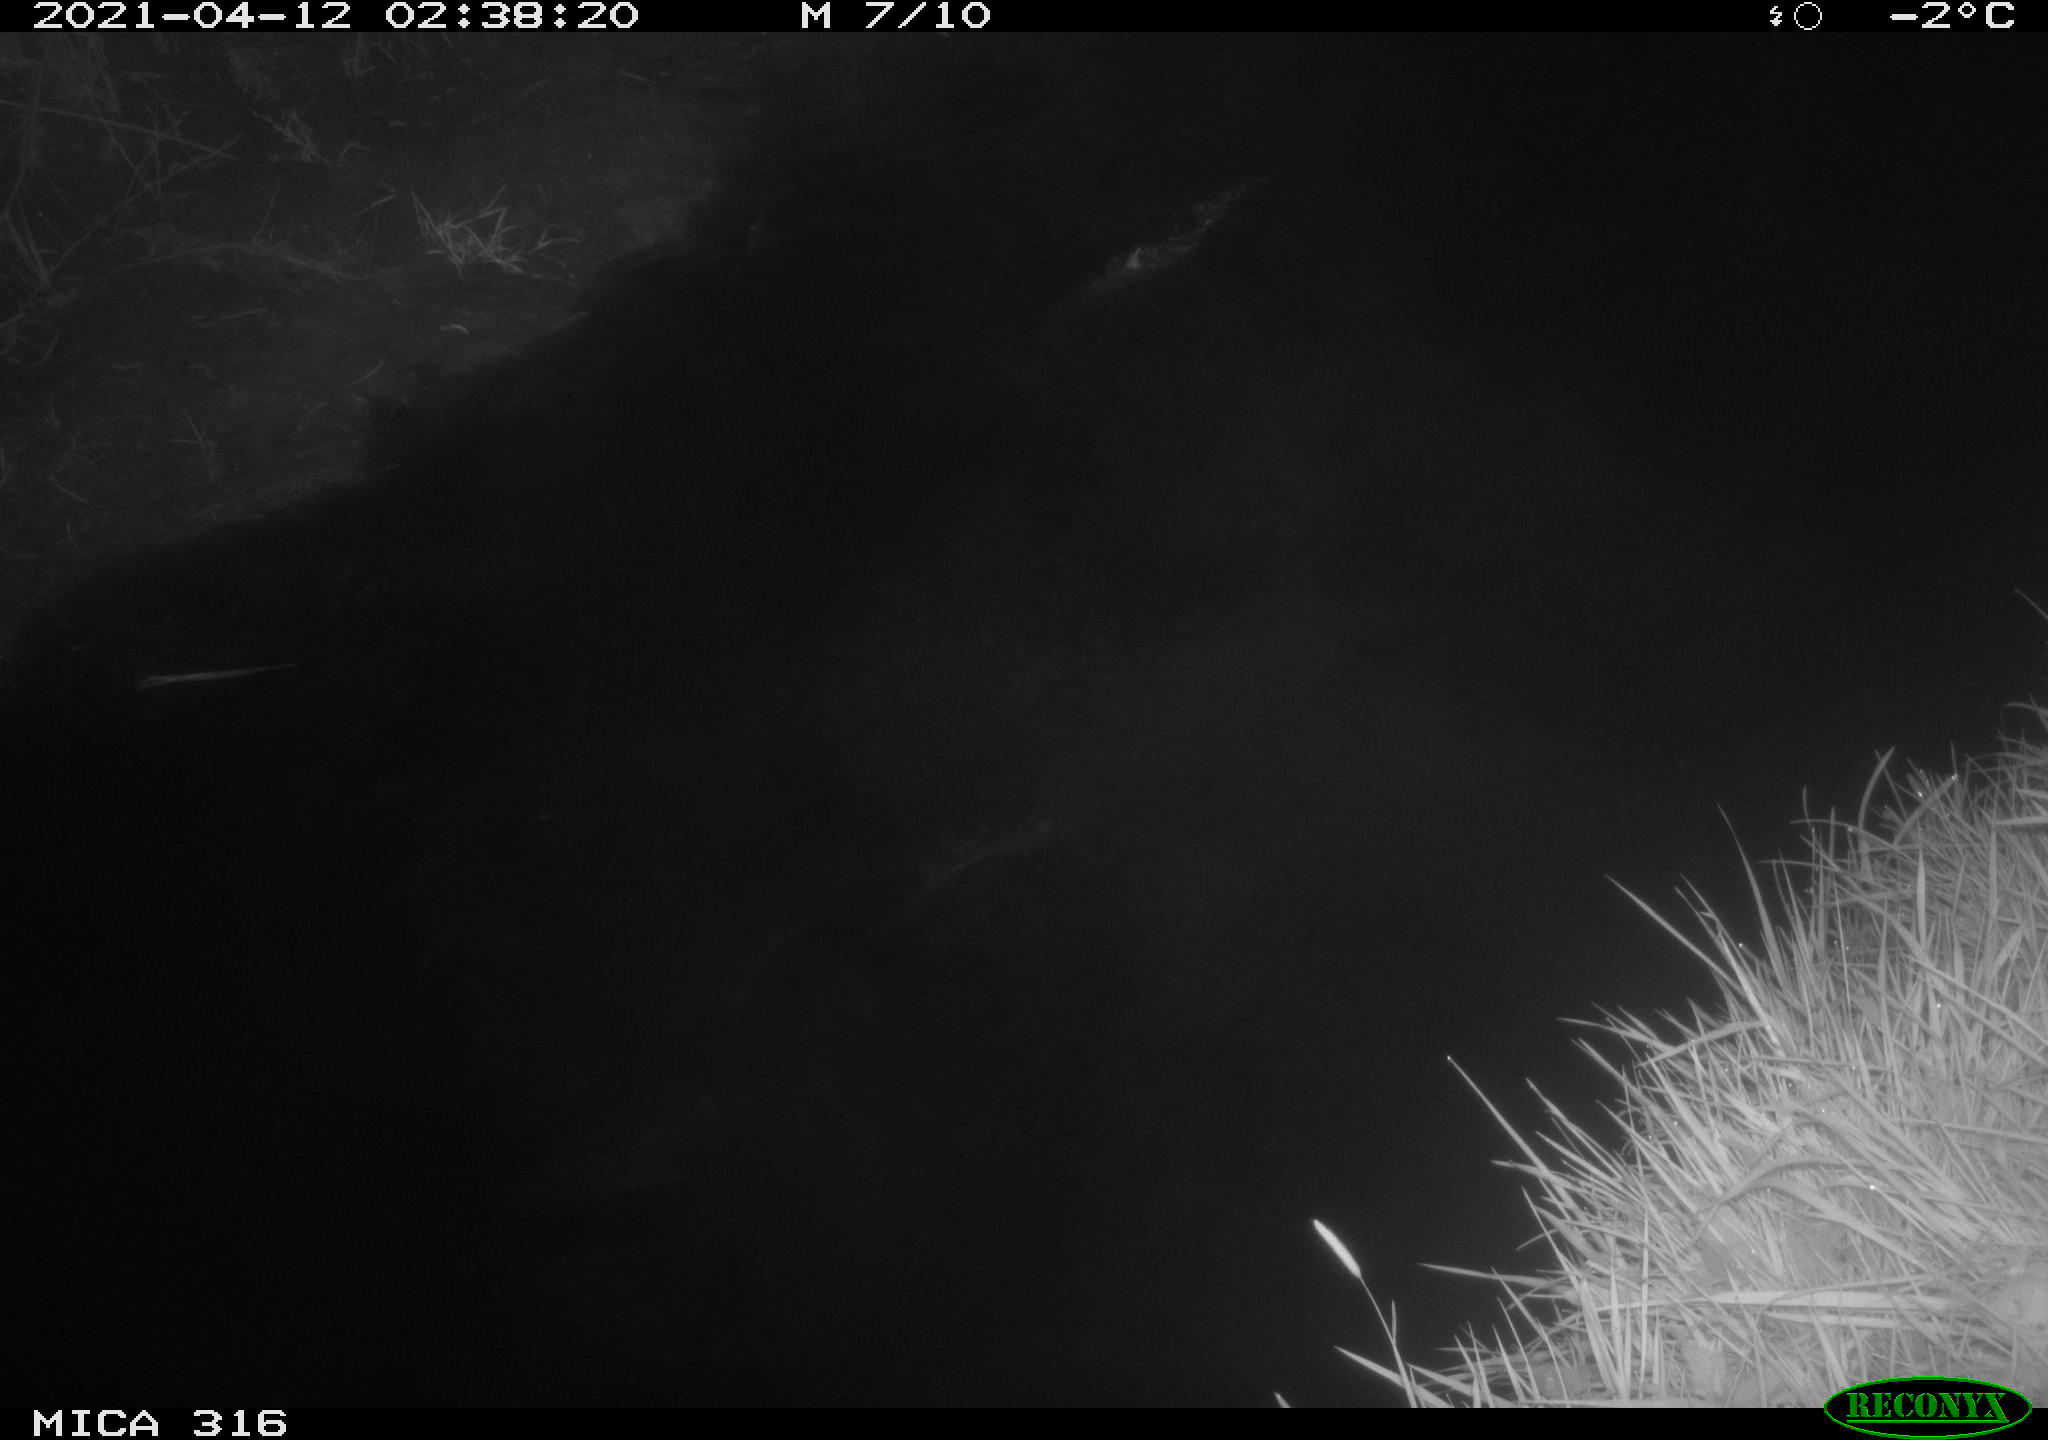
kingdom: Animalia
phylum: Chordata
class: Aves
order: Anseriformes
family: Anatidae
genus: Anas
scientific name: Anas platyrhynchos
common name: Mallard
